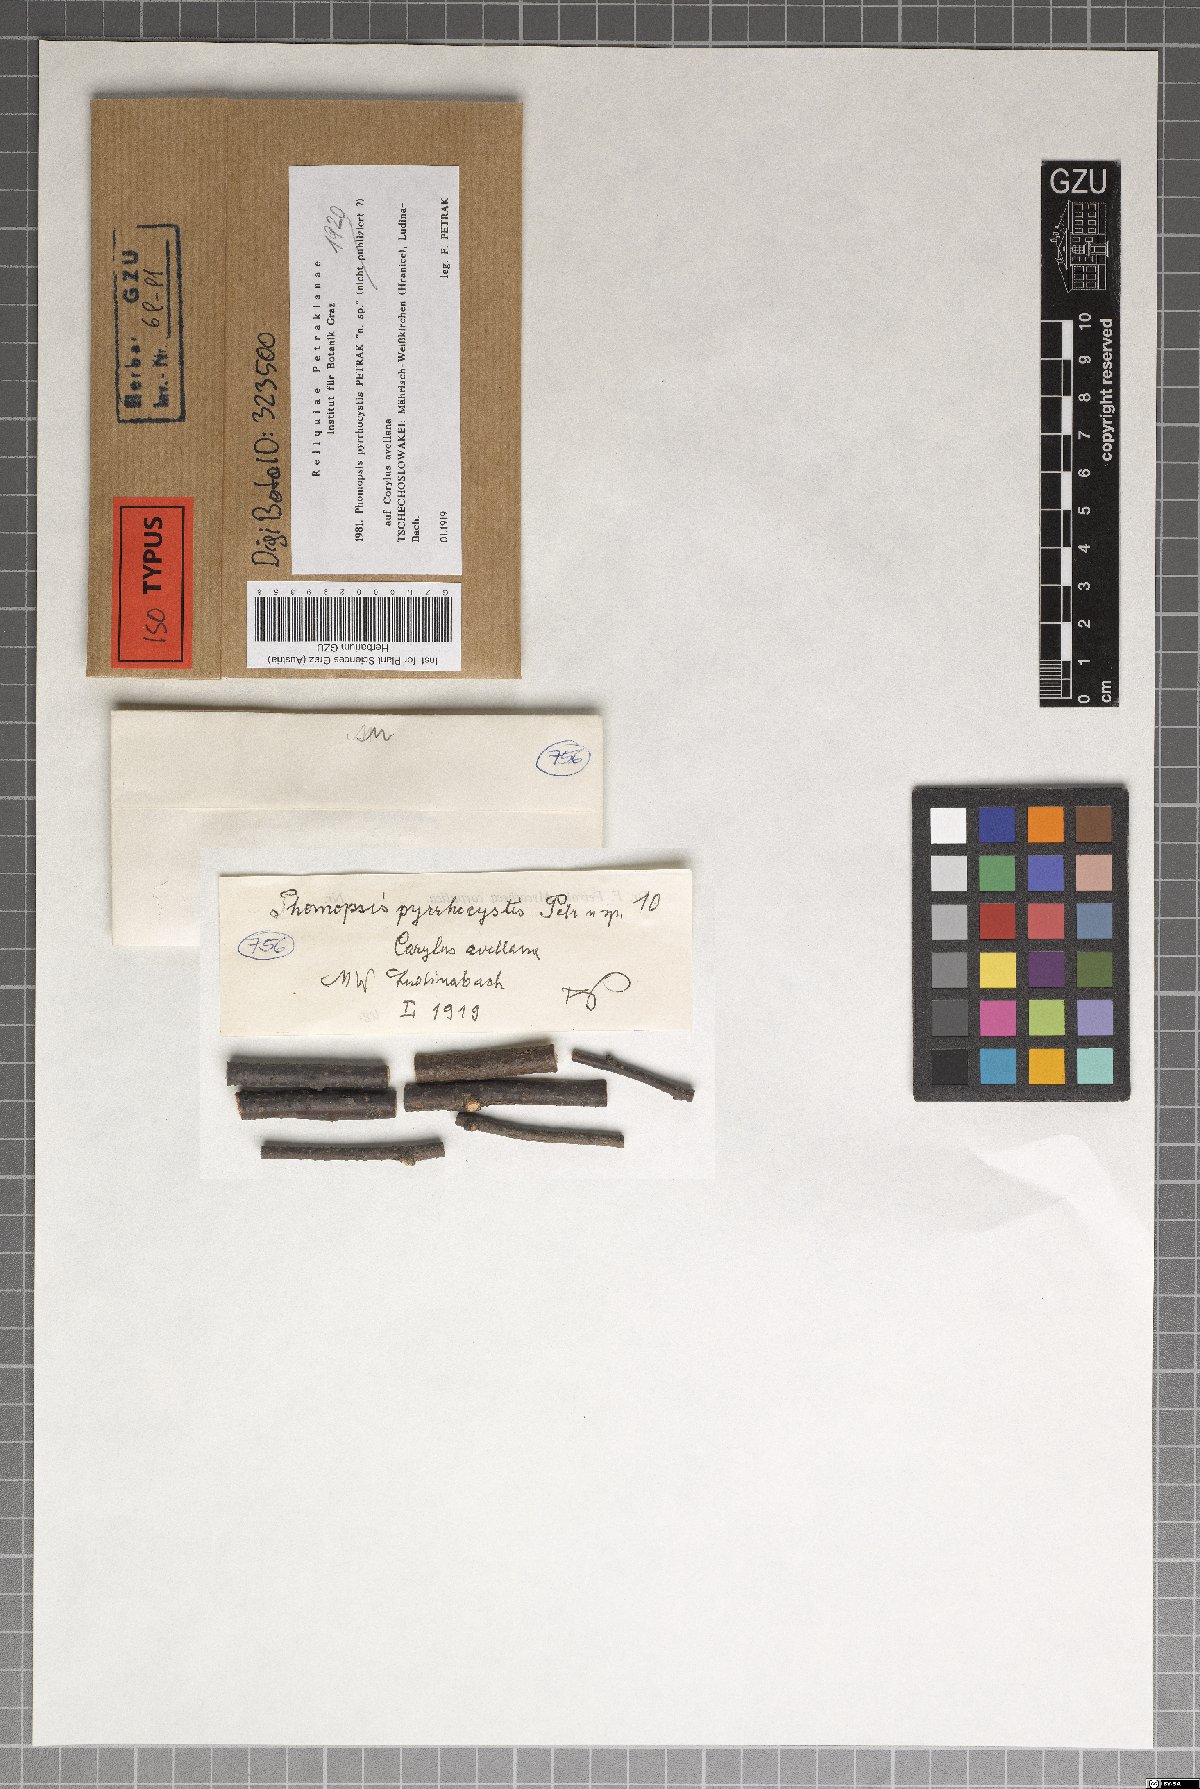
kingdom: Fungi
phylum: Ascomycota
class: Sordariomycetes
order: Diaporthales
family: Diaporthaceae
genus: Phomopsis
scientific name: Phomopsis pyrrhocystis
